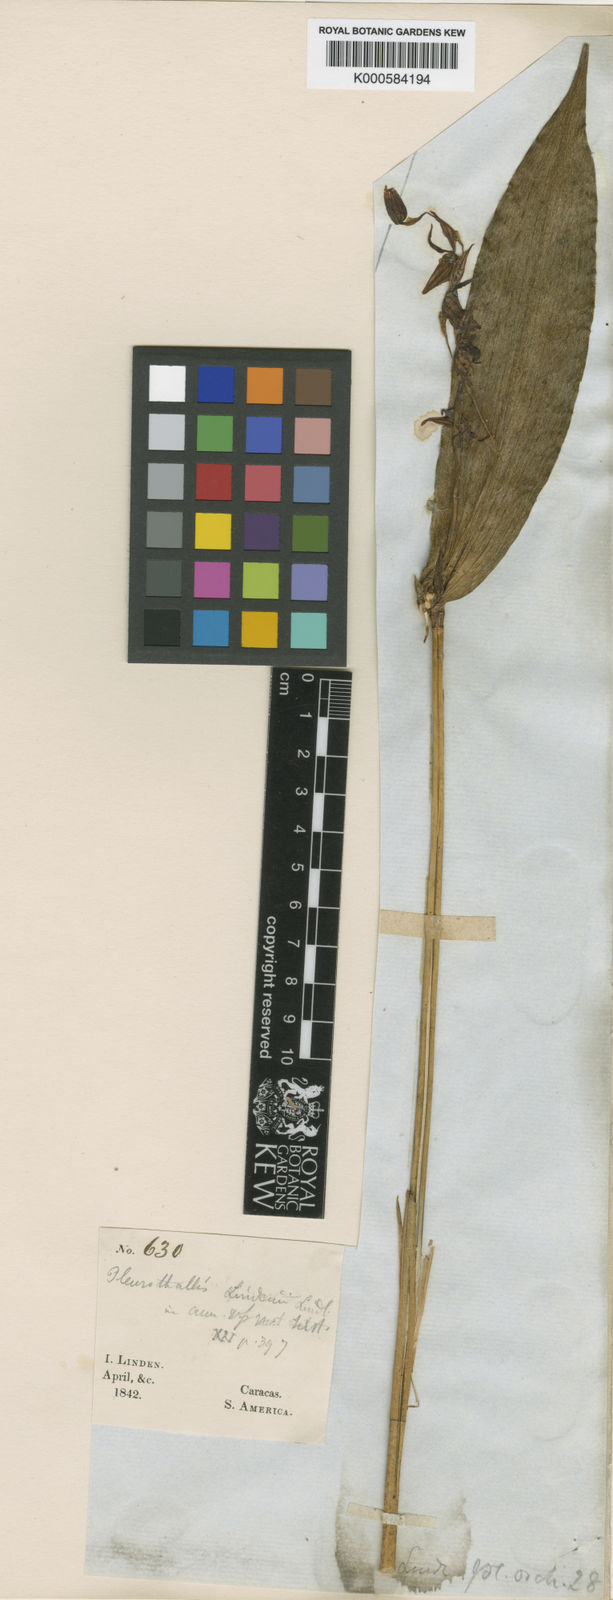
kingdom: Plantae
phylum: Tracheophyta
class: Liliopsida
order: Asparagales
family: Orchidaceae
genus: Pleurothallis
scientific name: Pleurothallis lindenii
